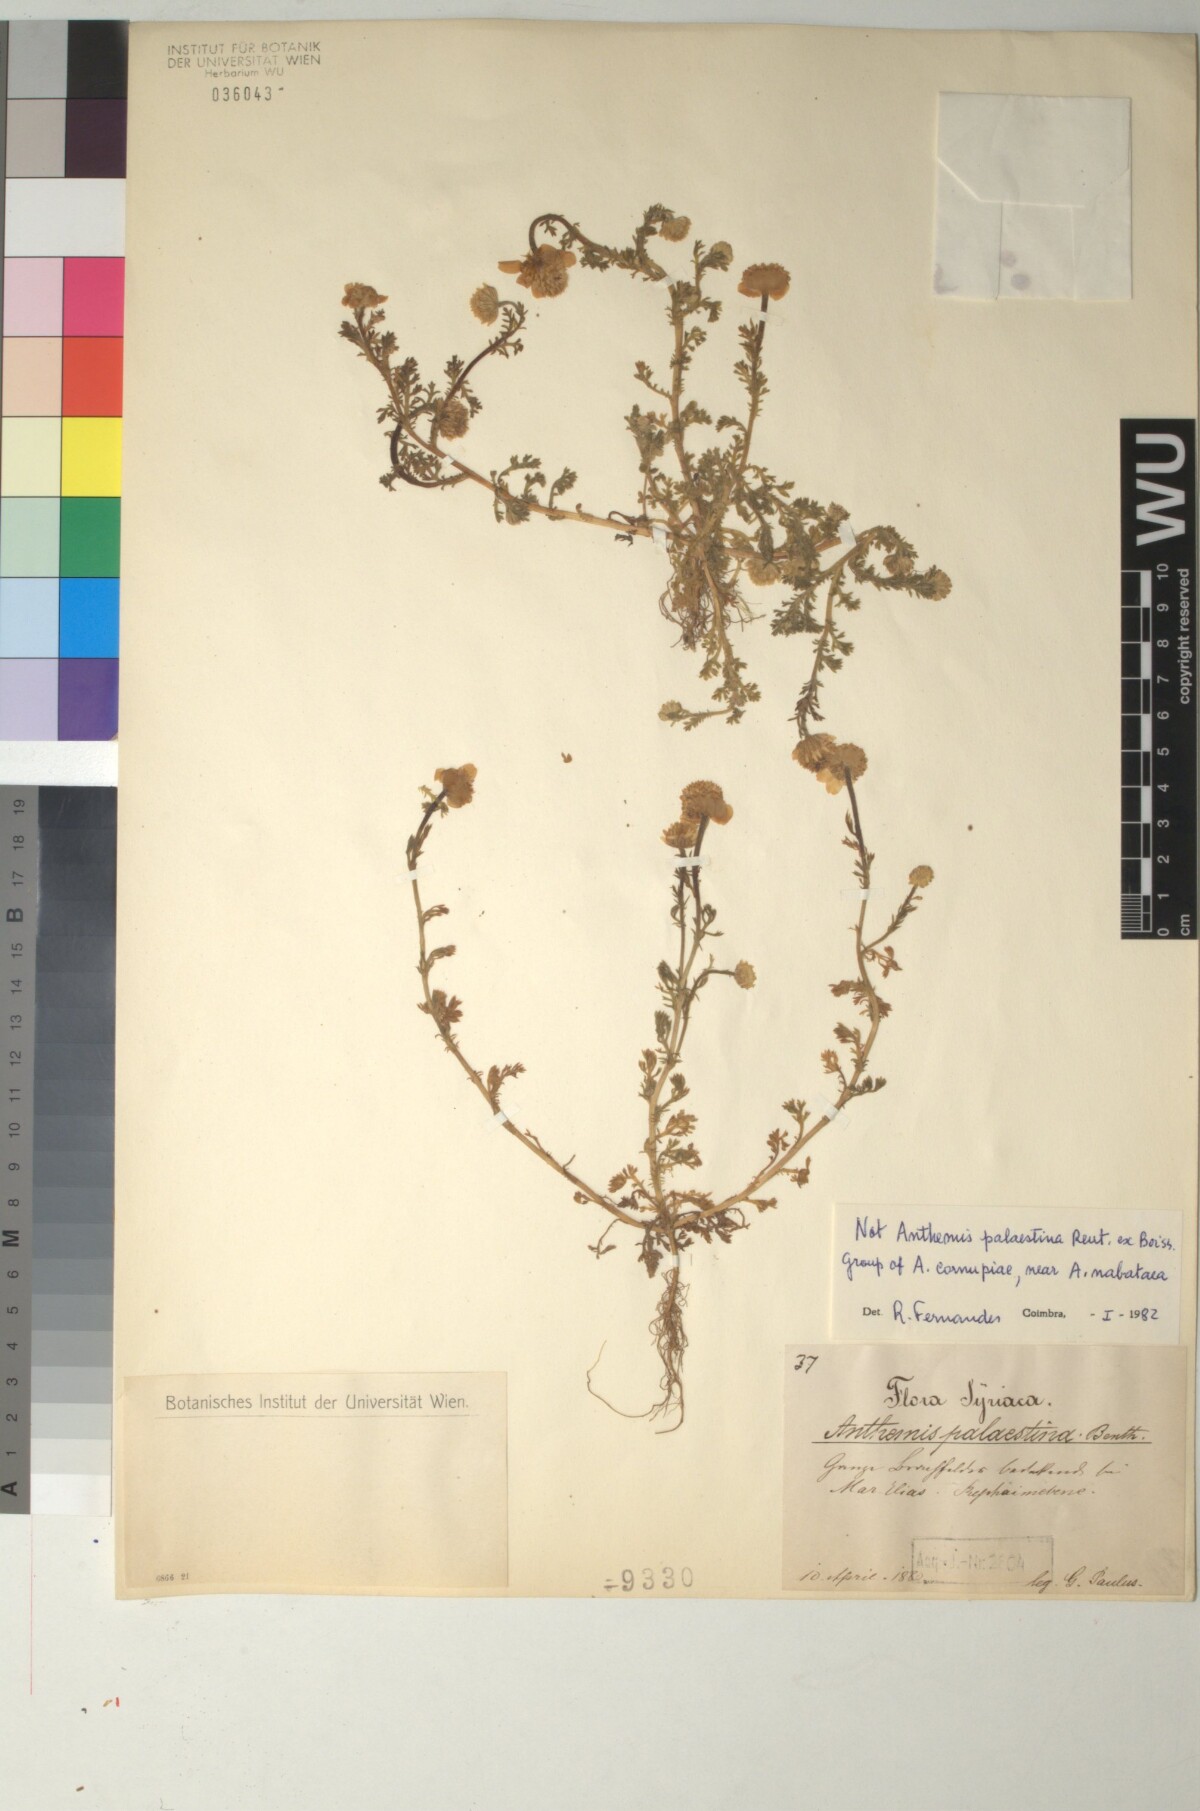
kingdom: Plantae
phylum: Tracheophyta
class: Magnoliopsida
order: Asterales
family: Asteraceae
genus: Anthemis
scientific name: Anthemis cornucopiae
